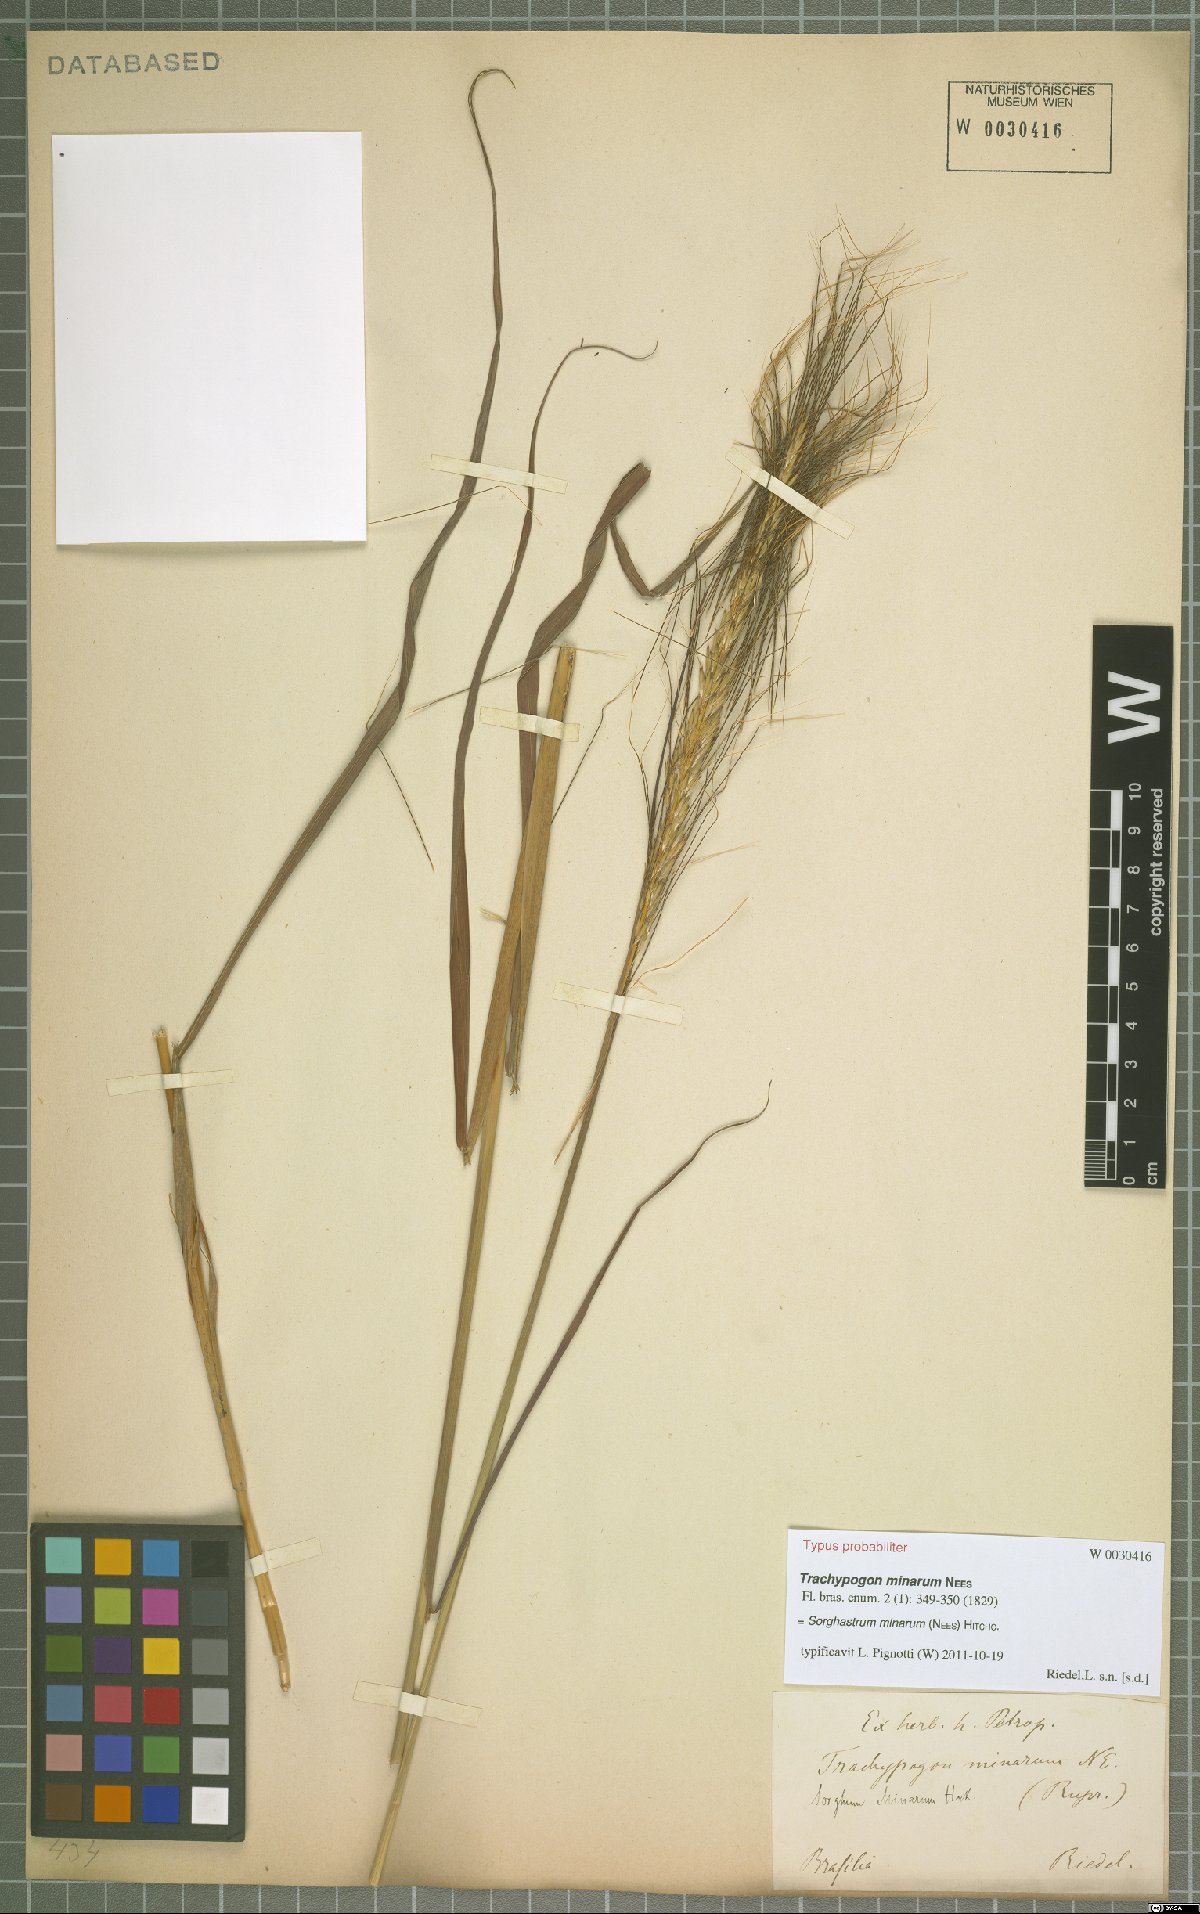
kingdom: Plantae
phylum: Tracheophyta
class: Liliopsida
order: Poales
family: Poaceae
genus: Sorghastrum
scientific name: Sorghastrum minarum
